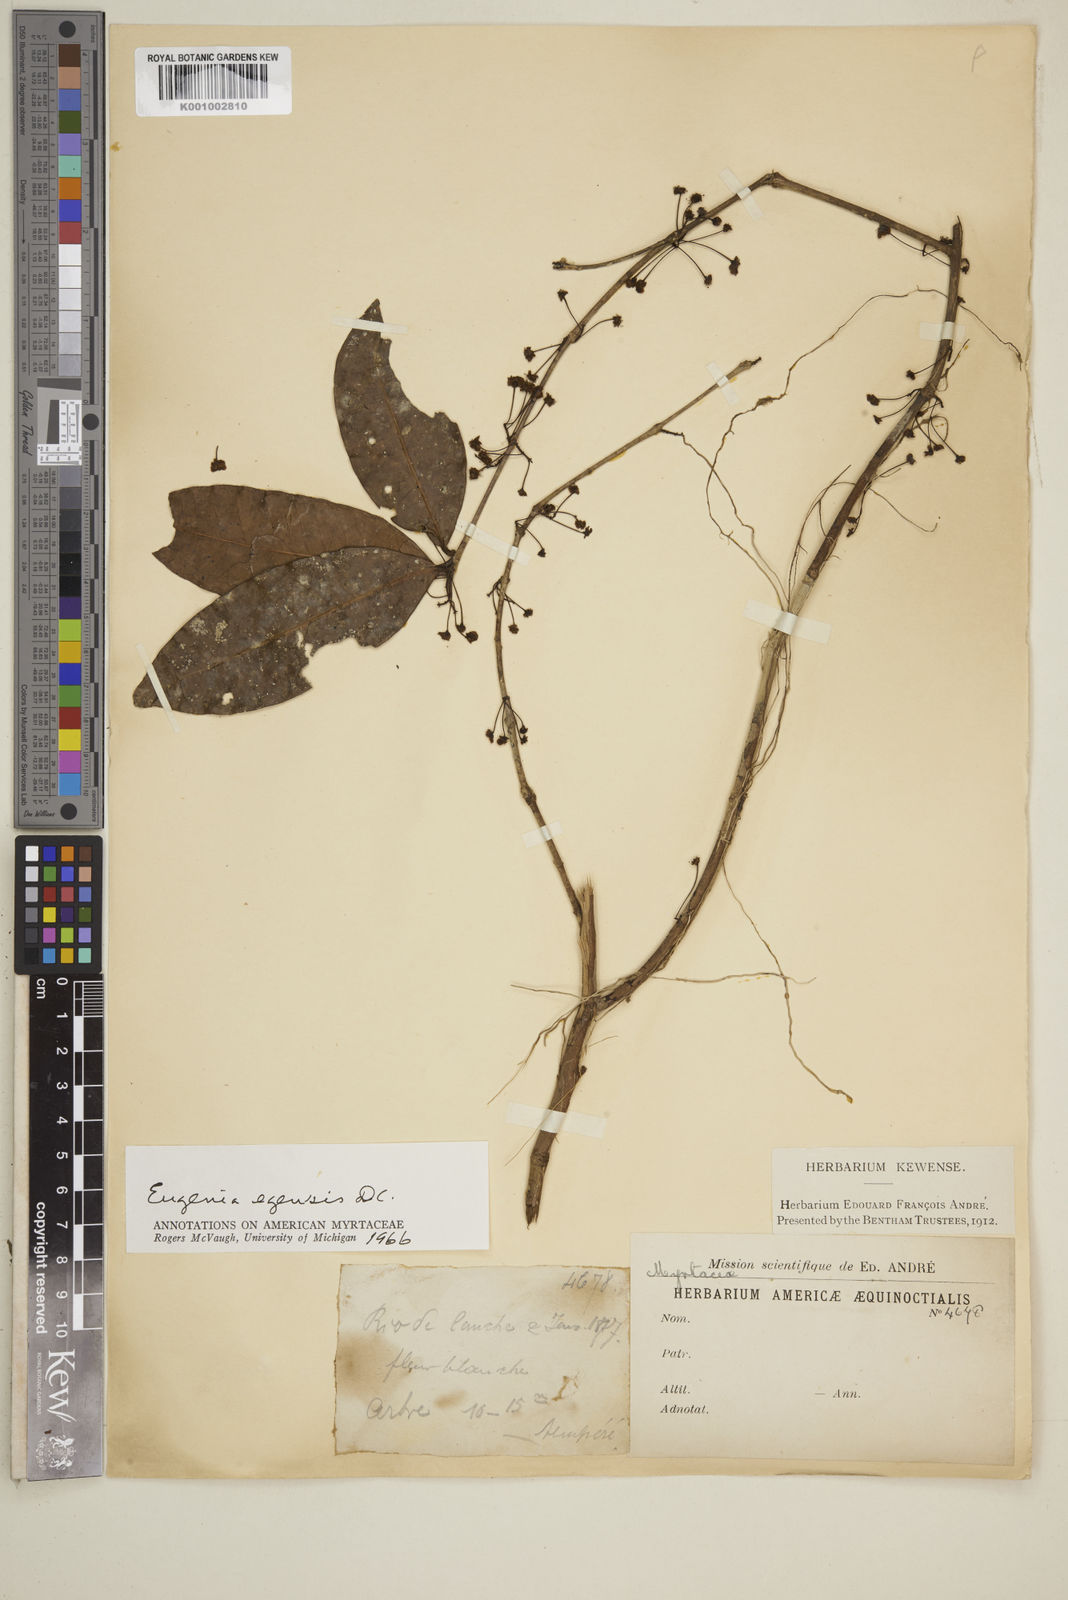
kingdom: Plantae
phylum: Tracheophyta
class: Magnoliopsida
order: Myrtales
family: Myrtaceae
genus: Eugenia
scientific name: Eugenia egensis
